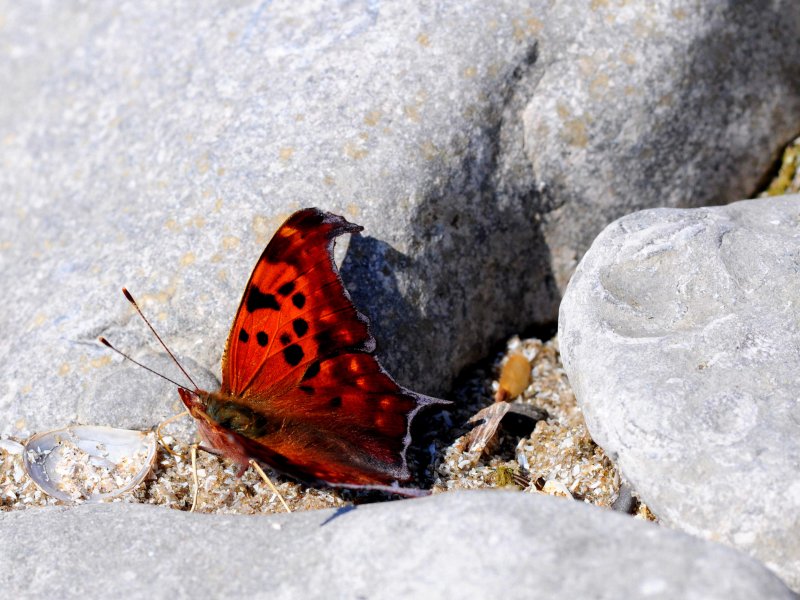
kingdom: Animalia
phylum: Arthropoda
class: Insecta
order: Lepidoptera
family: Nymphalidae
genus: Polygonia
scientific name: Polygonia interrogationis
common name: Question Mark
